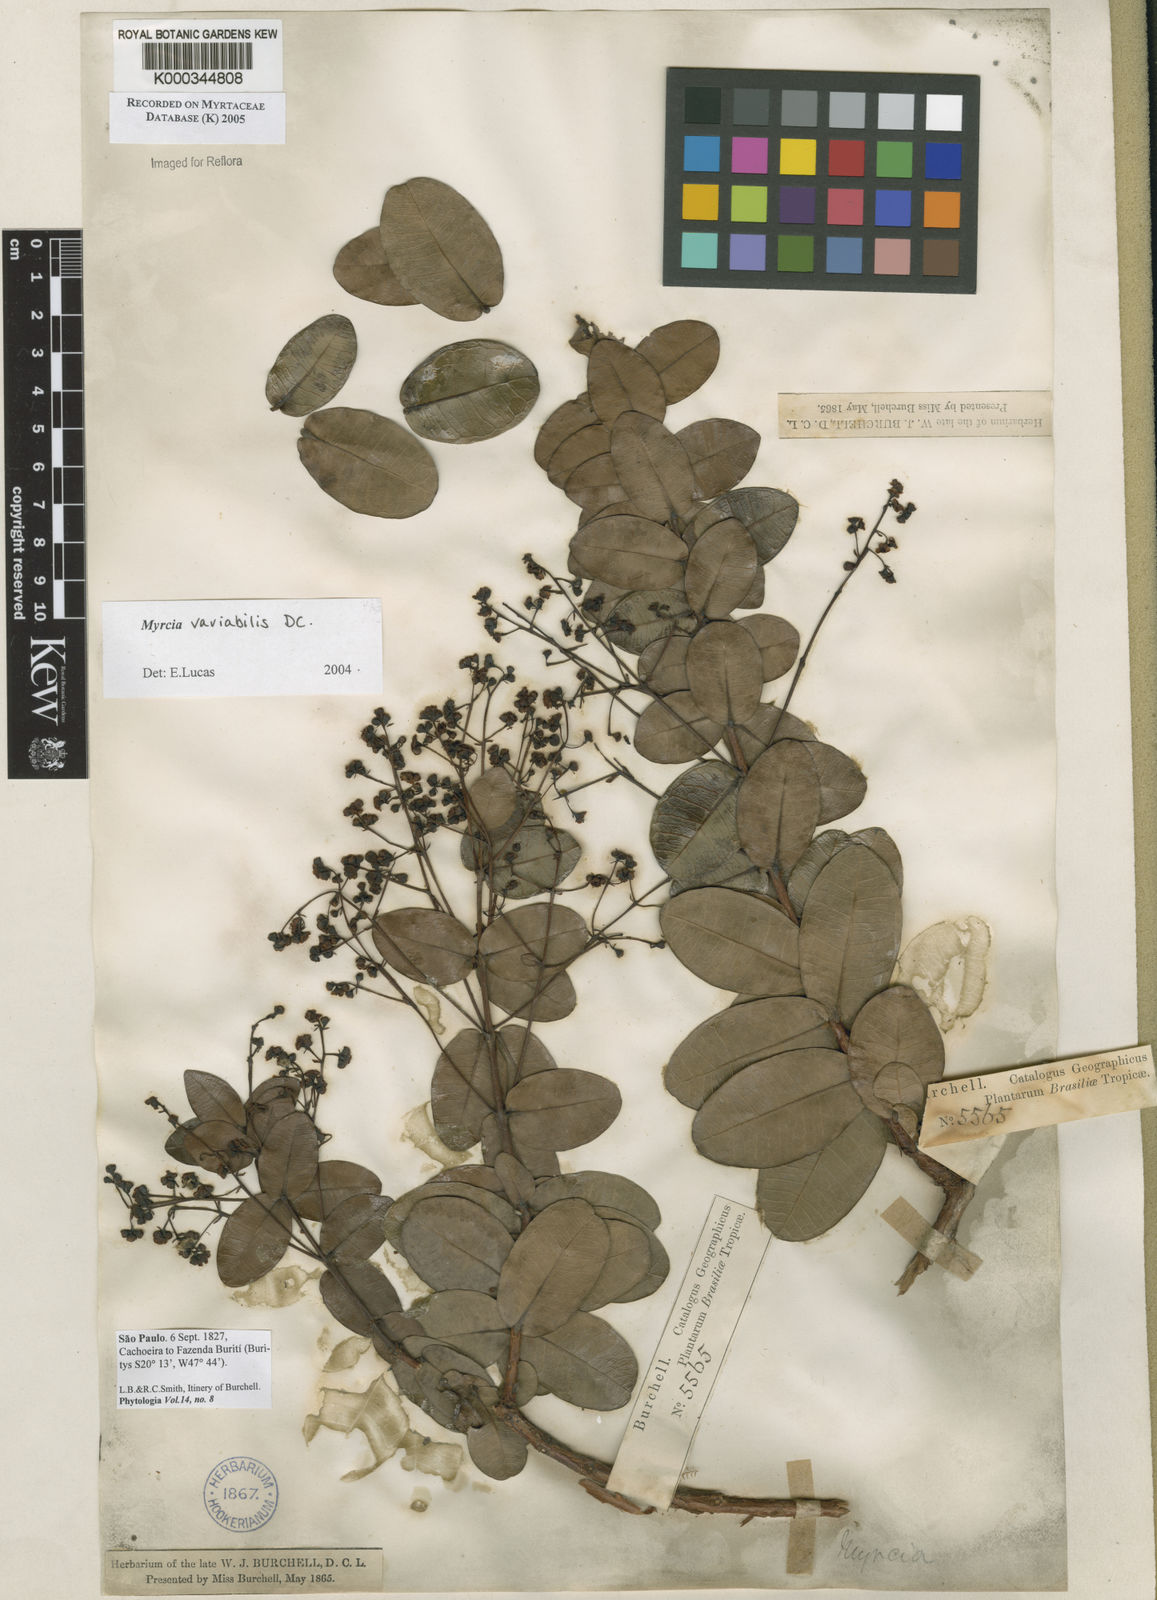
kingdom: Plantae
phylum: Tracheophyta
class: Magnoliopsida
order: Myrtales
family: Myrtaceae
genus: Myrcia
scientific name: Myrcia variabilis
